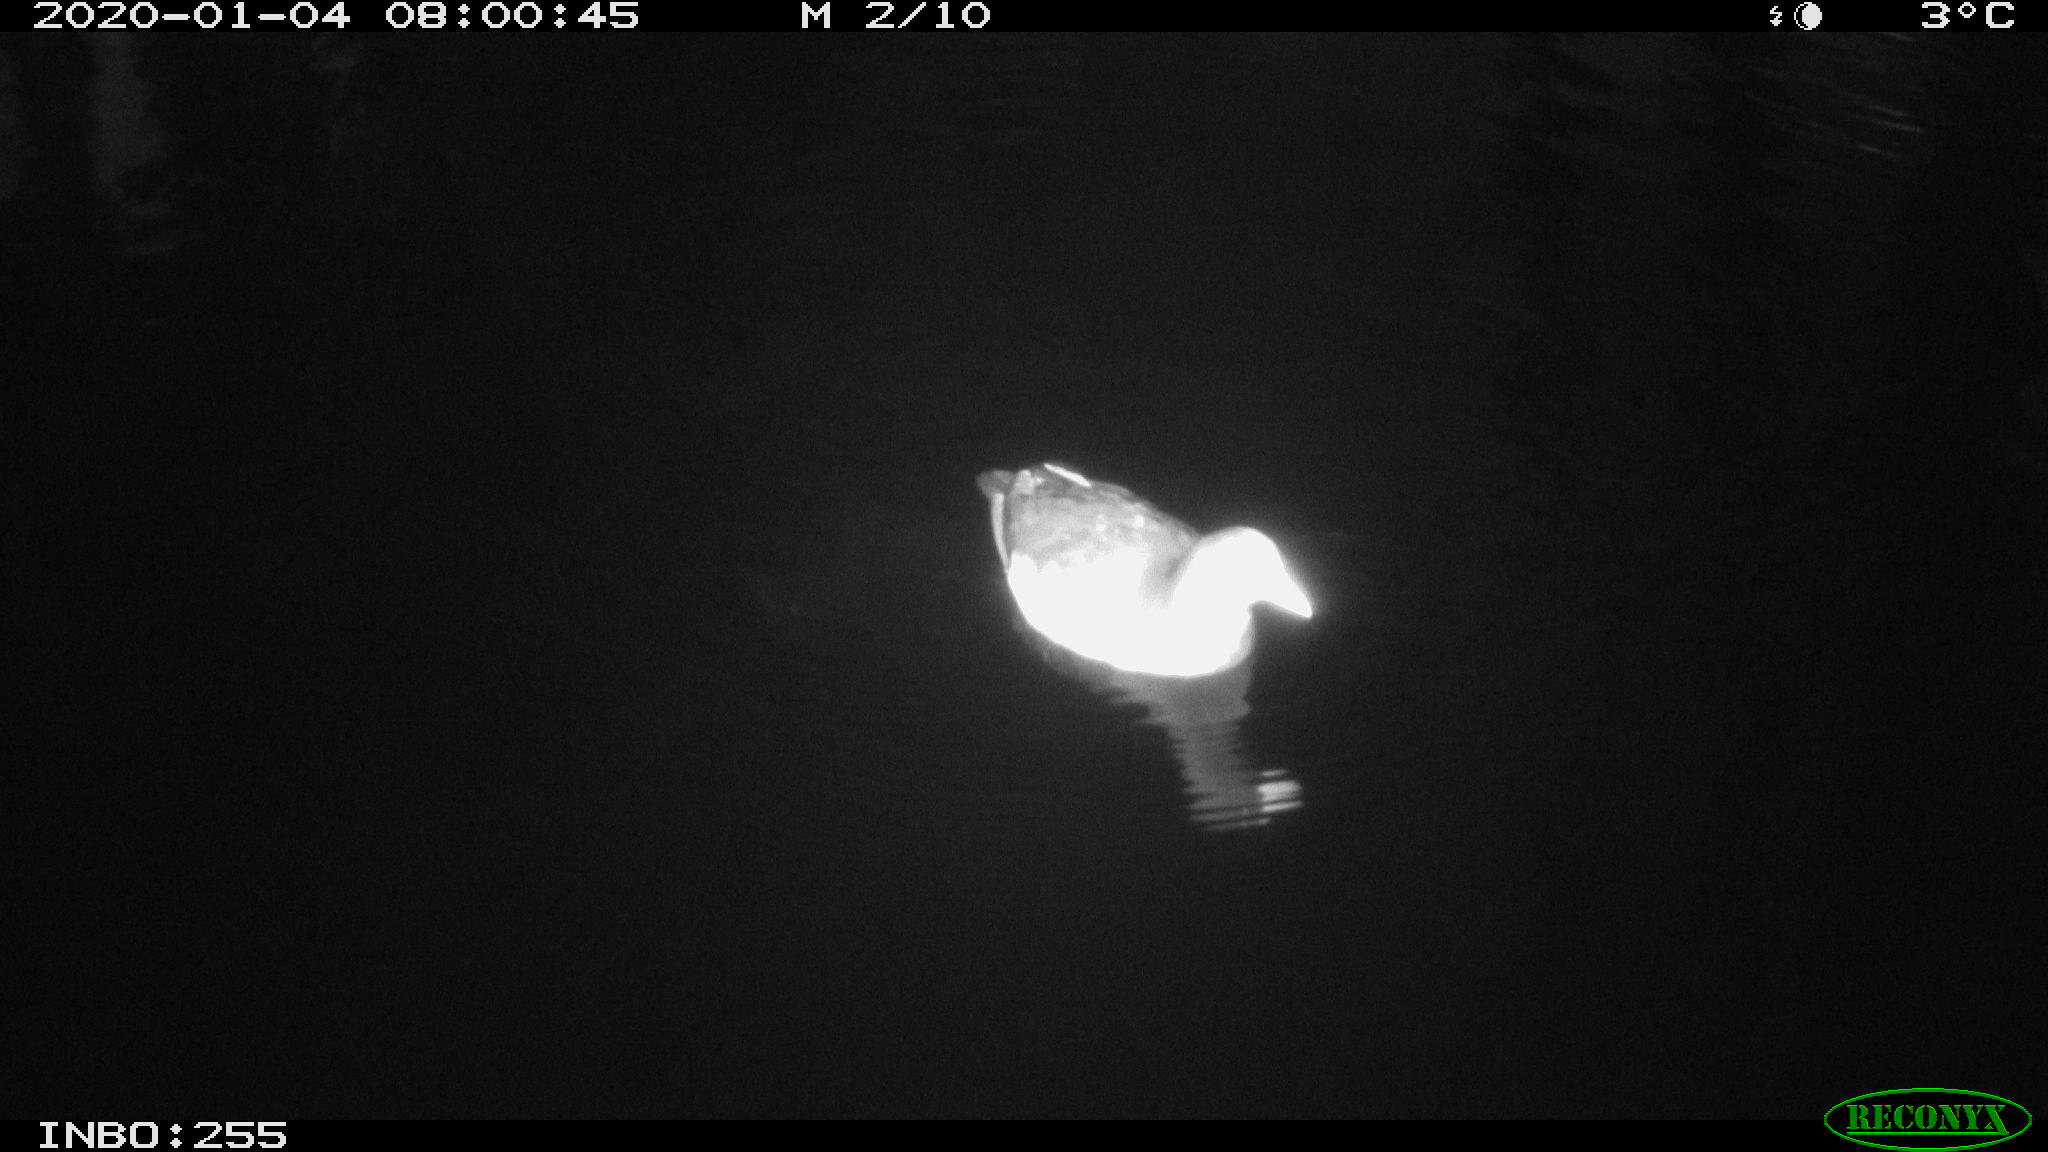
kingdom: Animalia
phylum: Chordata
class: Aves
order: Gruiformes
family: Rallidae
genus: Gallinula
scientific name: Gallinula chloropus
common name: Common moorhen
